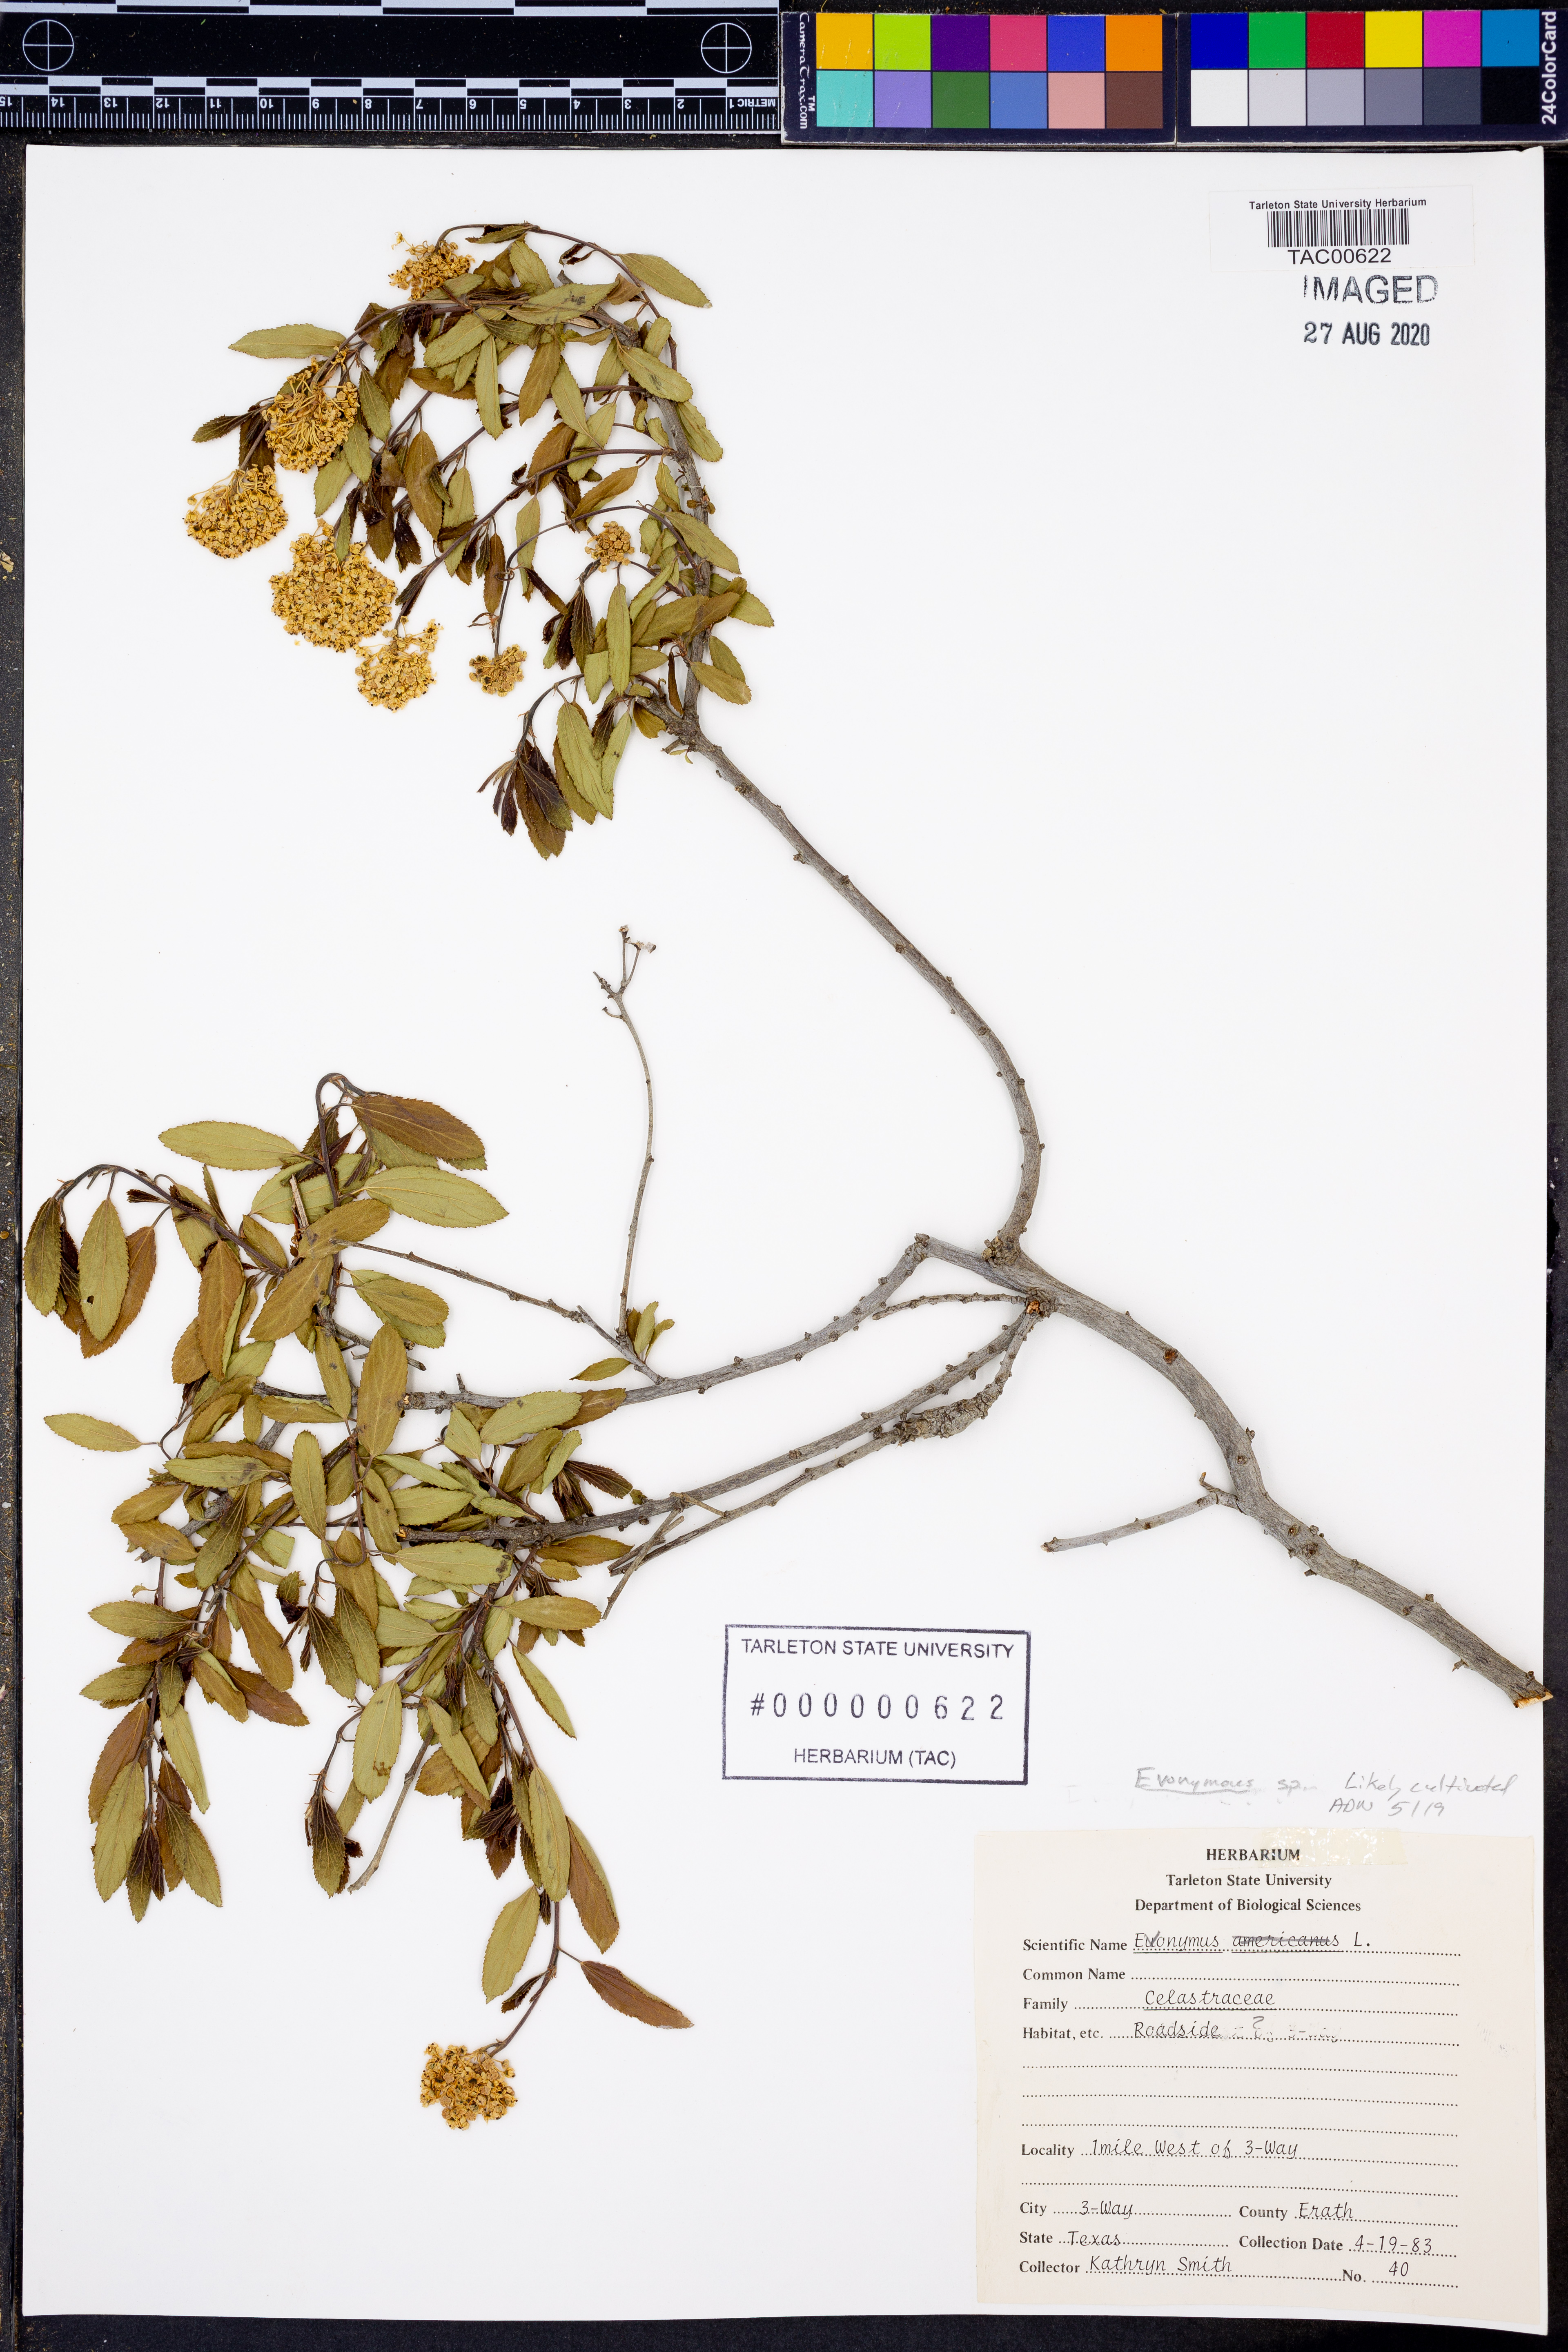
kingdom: Plantae
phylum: Tracheophyta
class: Magnoliopsida
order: Celastrales
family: Celastraceae
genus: Euonymus
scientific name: Euonymus
